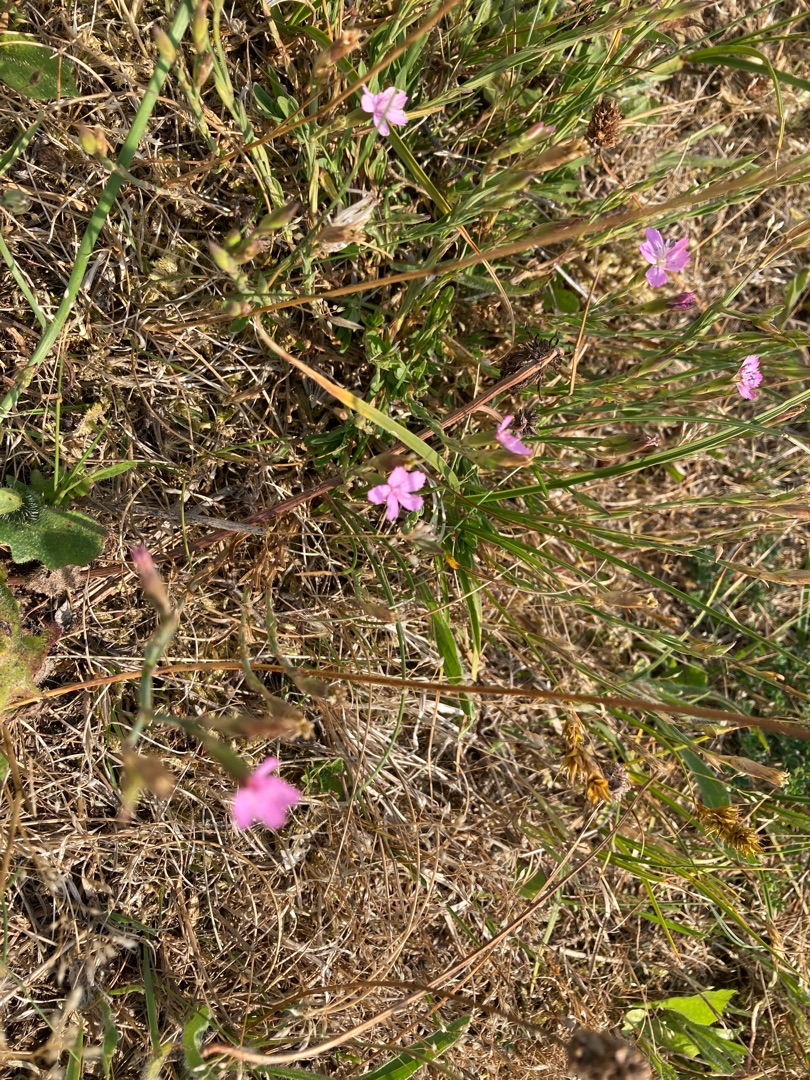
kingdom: Plantae
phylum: Tracheophyta
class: Magnoliopsida
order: Caryophyllales
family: Caryophyllaceae
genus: Dianthus
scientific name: Dianthus deltoides
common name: Bakke-nellike
